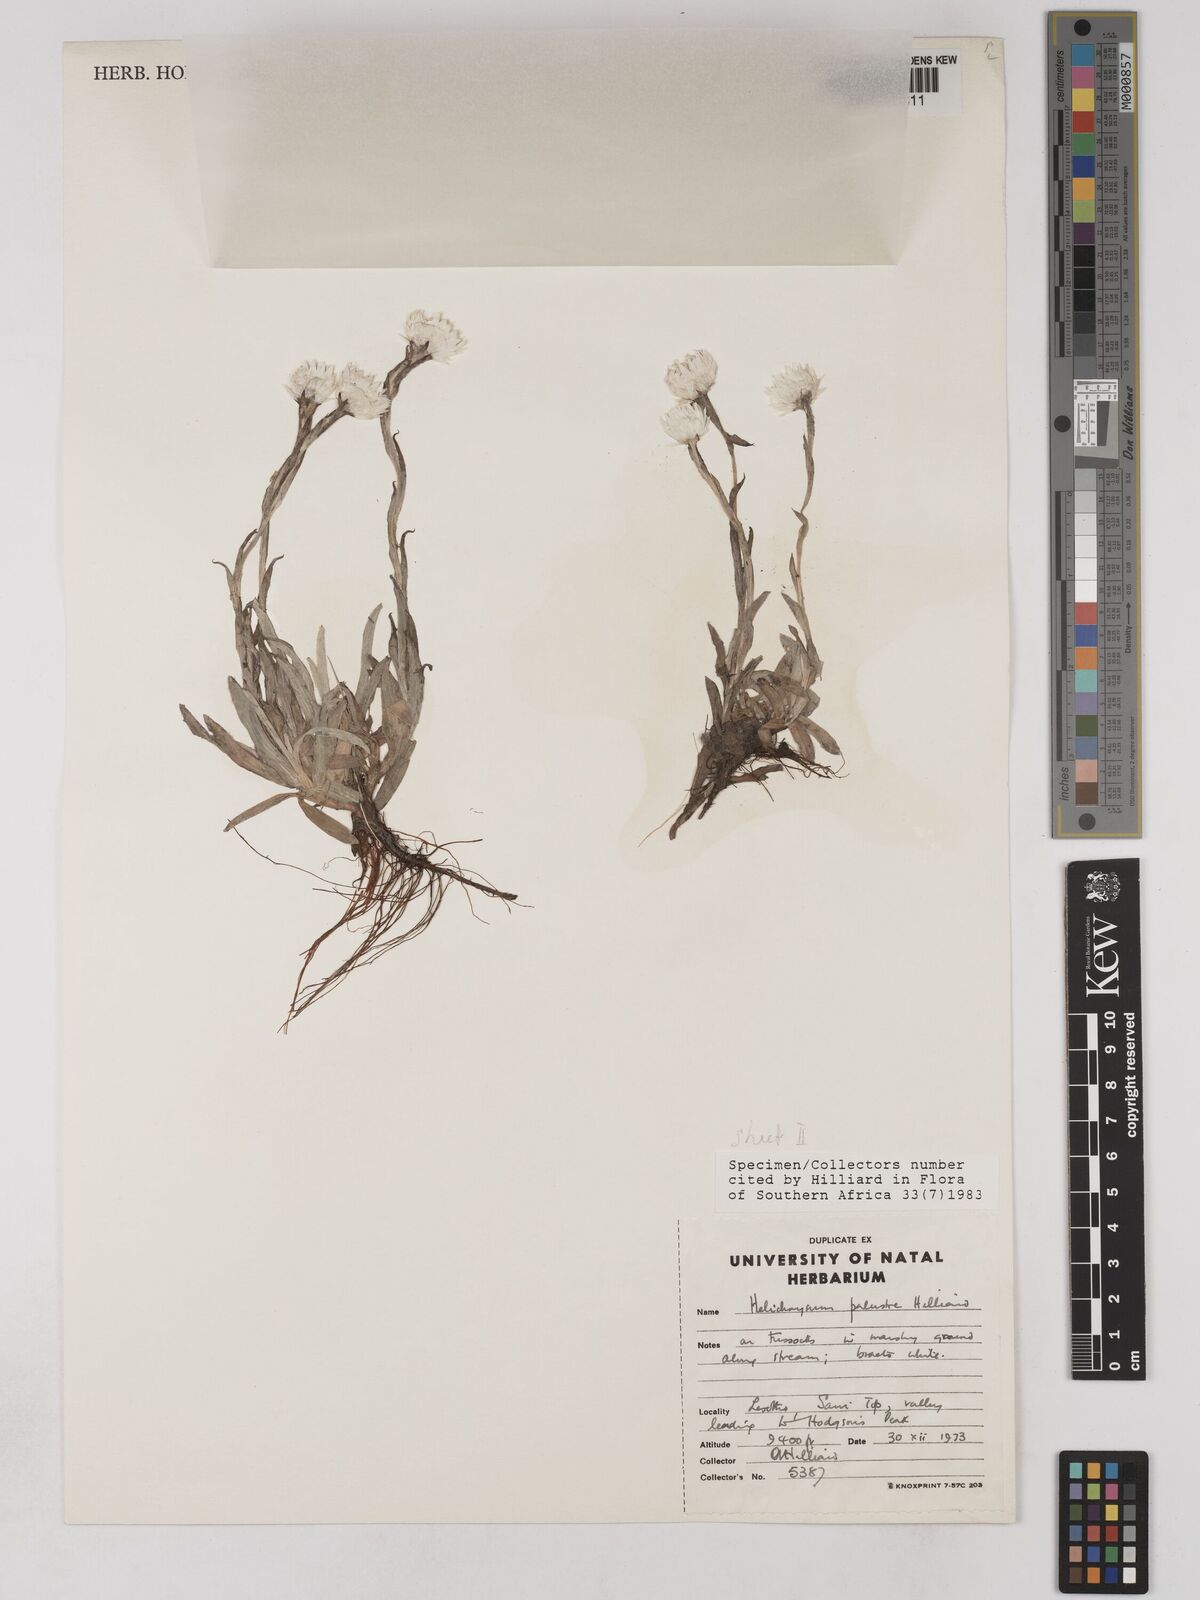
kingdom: Plantae
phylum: Tracheophyta
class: Magnoliopsida
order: Asterales
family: Asteraceae
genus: Helichrysum
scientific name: Helichrysum palustre
